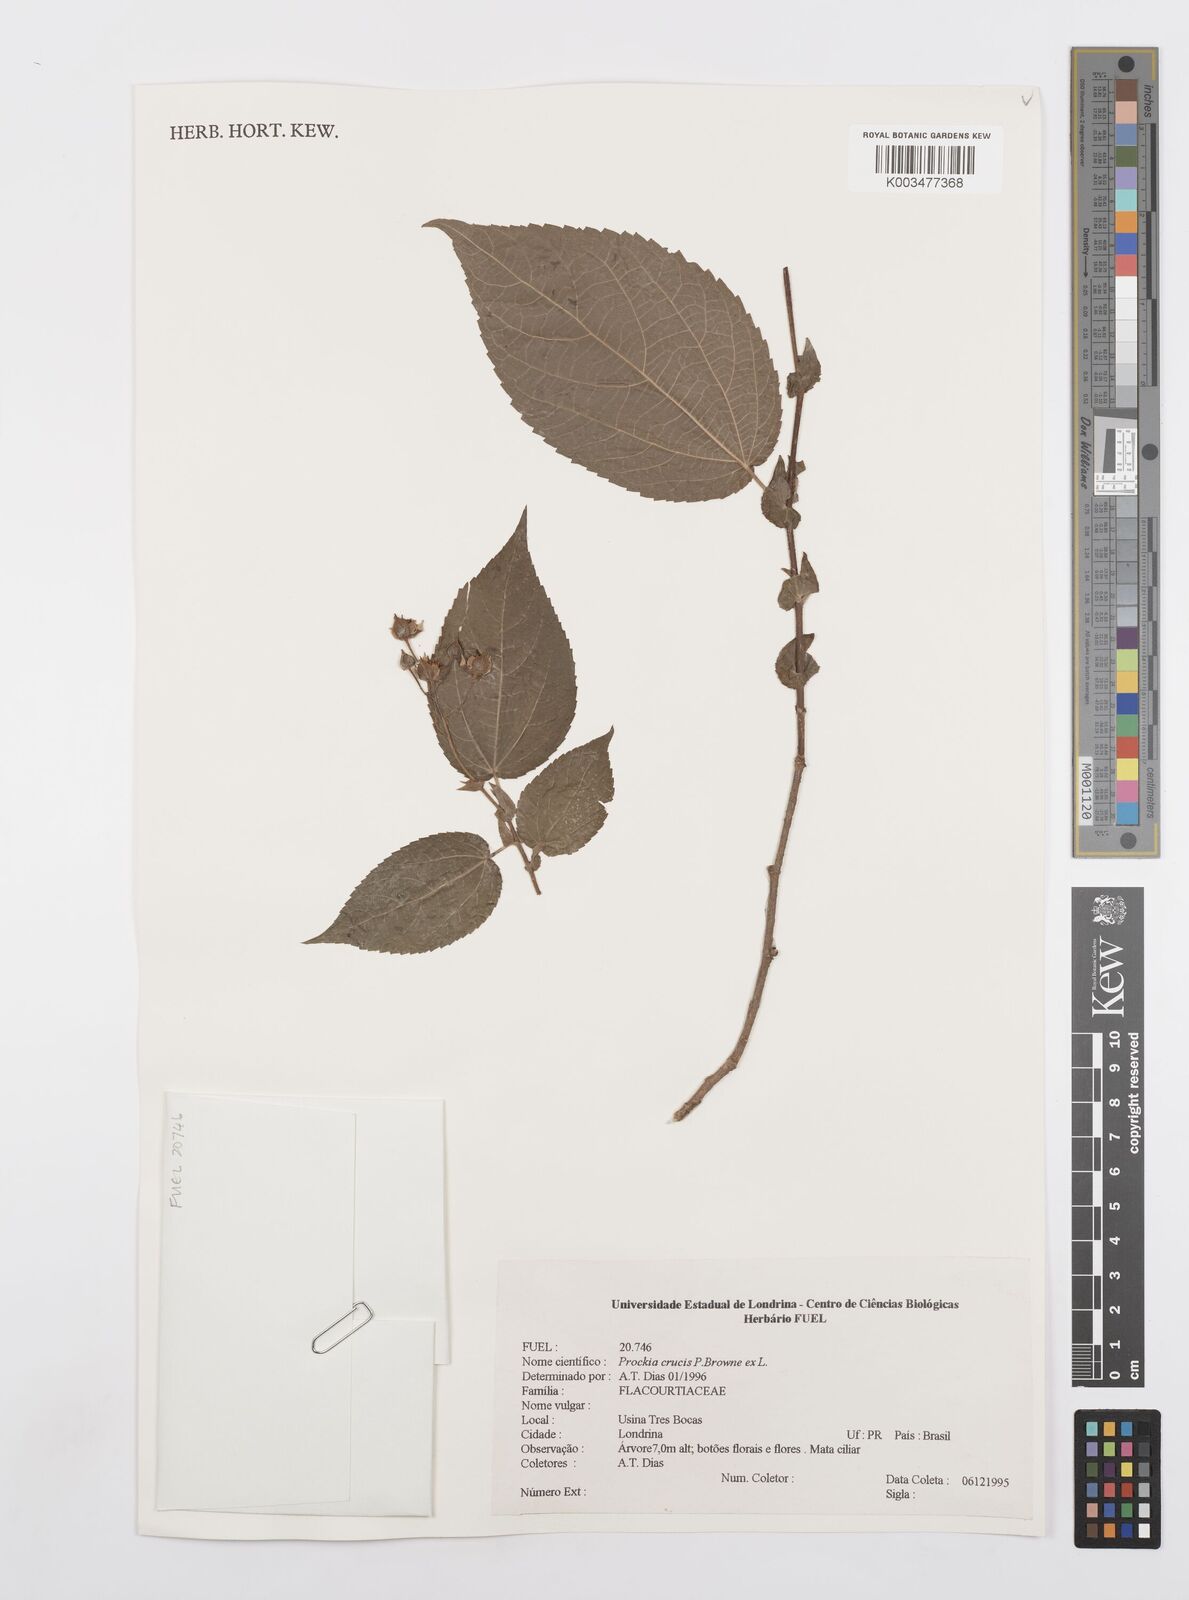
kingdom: Plantae
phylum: Tracheophyta
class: Magnoliopsida
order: Malpighiales
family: Salicaceae
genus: Prockia
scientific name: Prockia crucis
